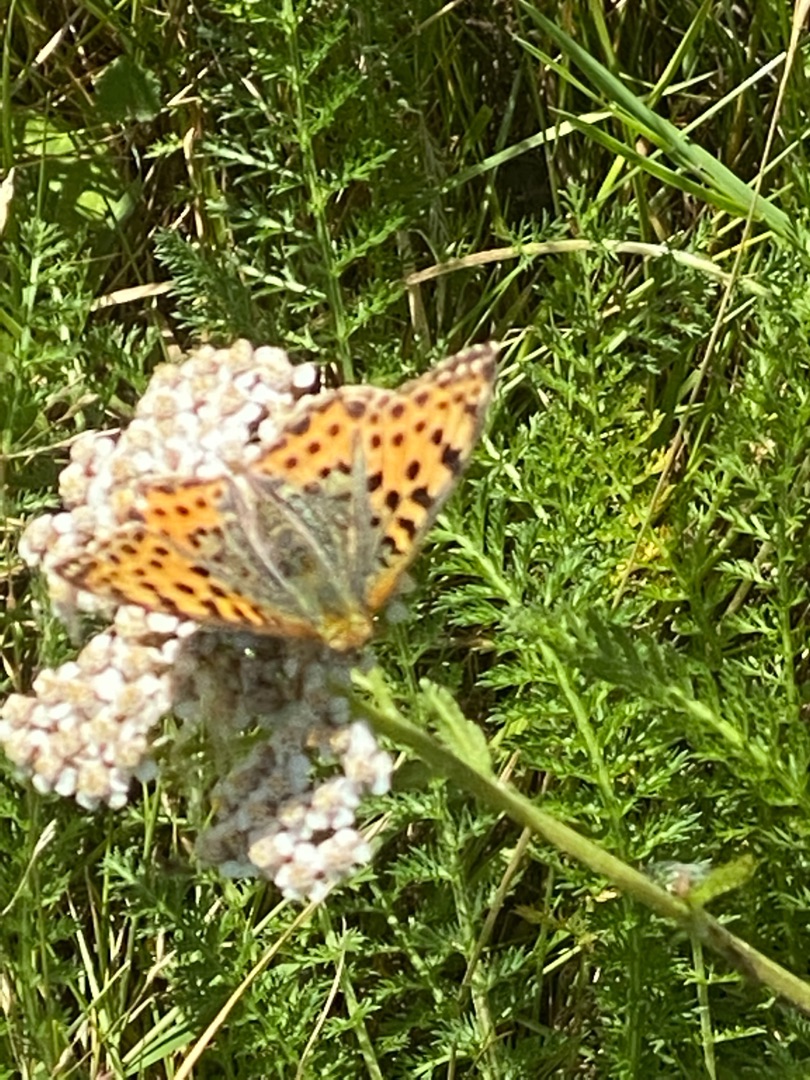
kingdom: Animalia
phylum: Arthropoda
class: Insecta
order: Lepidoptera
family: Nymphalidae
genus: Issoria
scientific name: Issoria lathonia
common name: Storplettet perlemorsommerfugl
